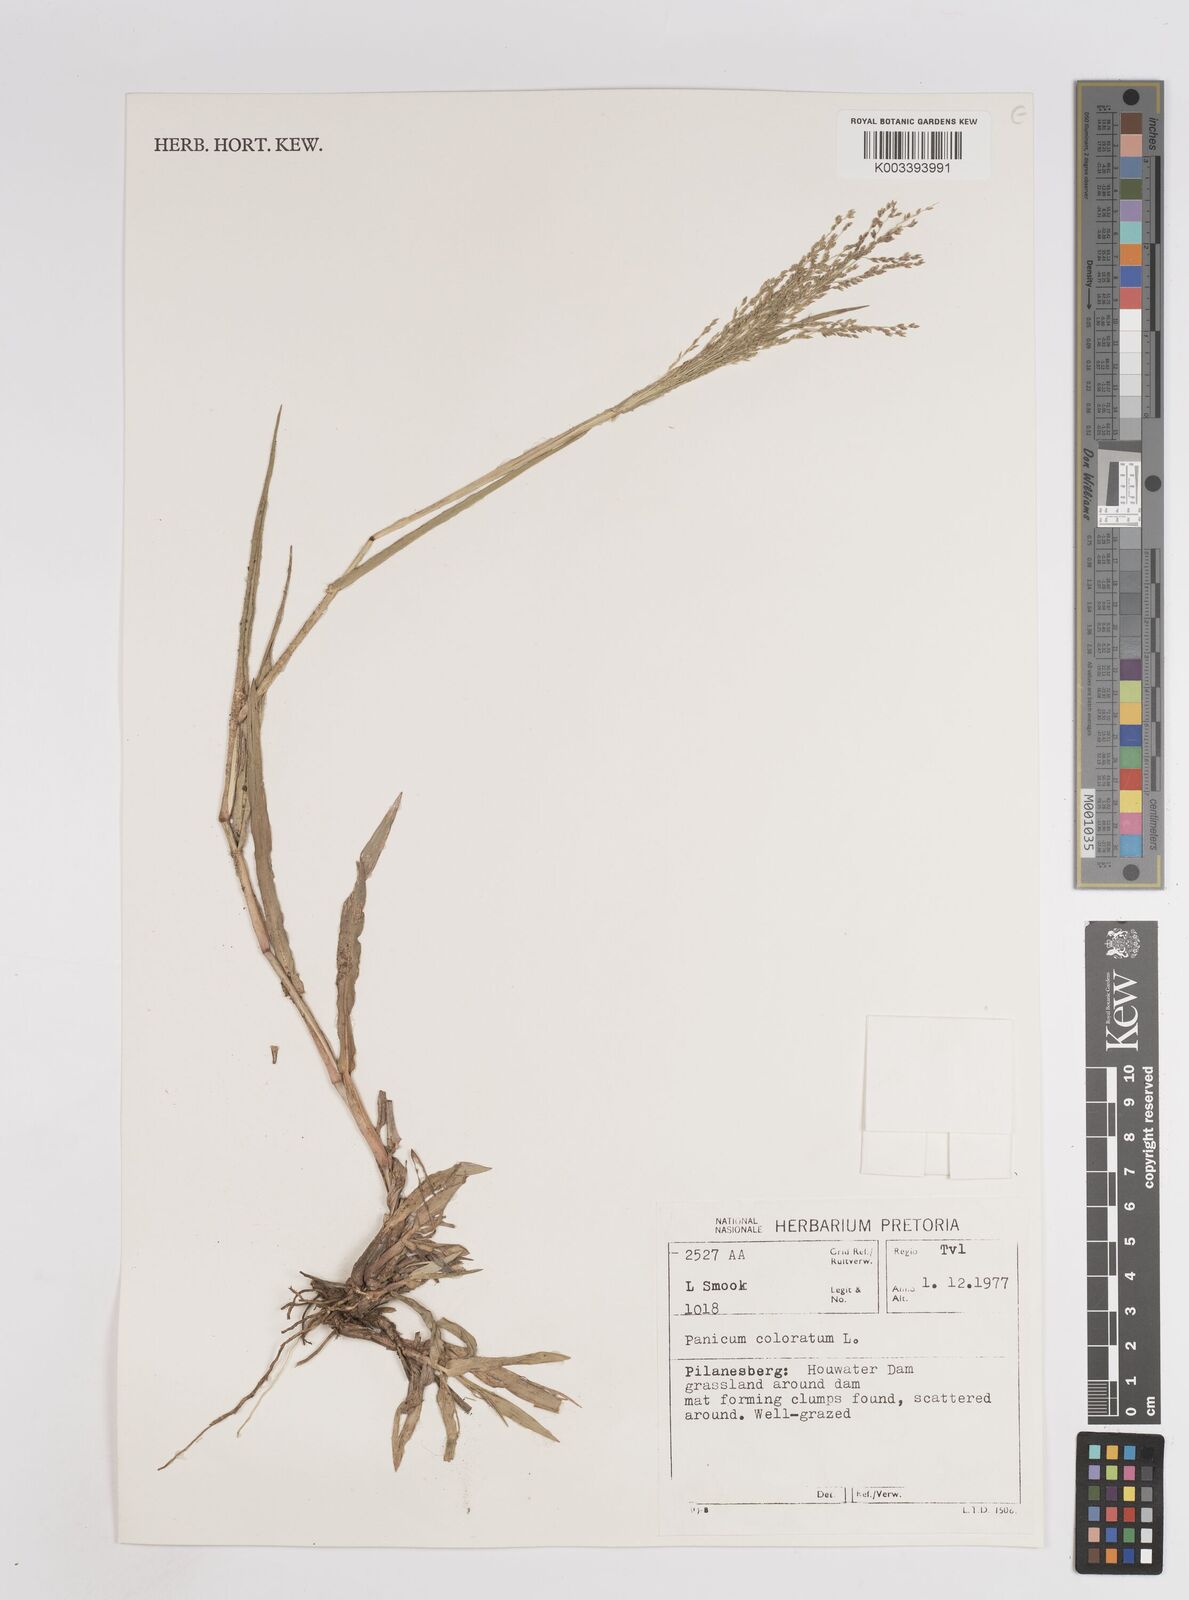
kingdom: Plantae
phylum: Tracheophyta
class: Liliopsida
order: Poales
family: Poaceae
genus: Panicum
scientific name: Panicum coloratum
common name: Kleingrass
